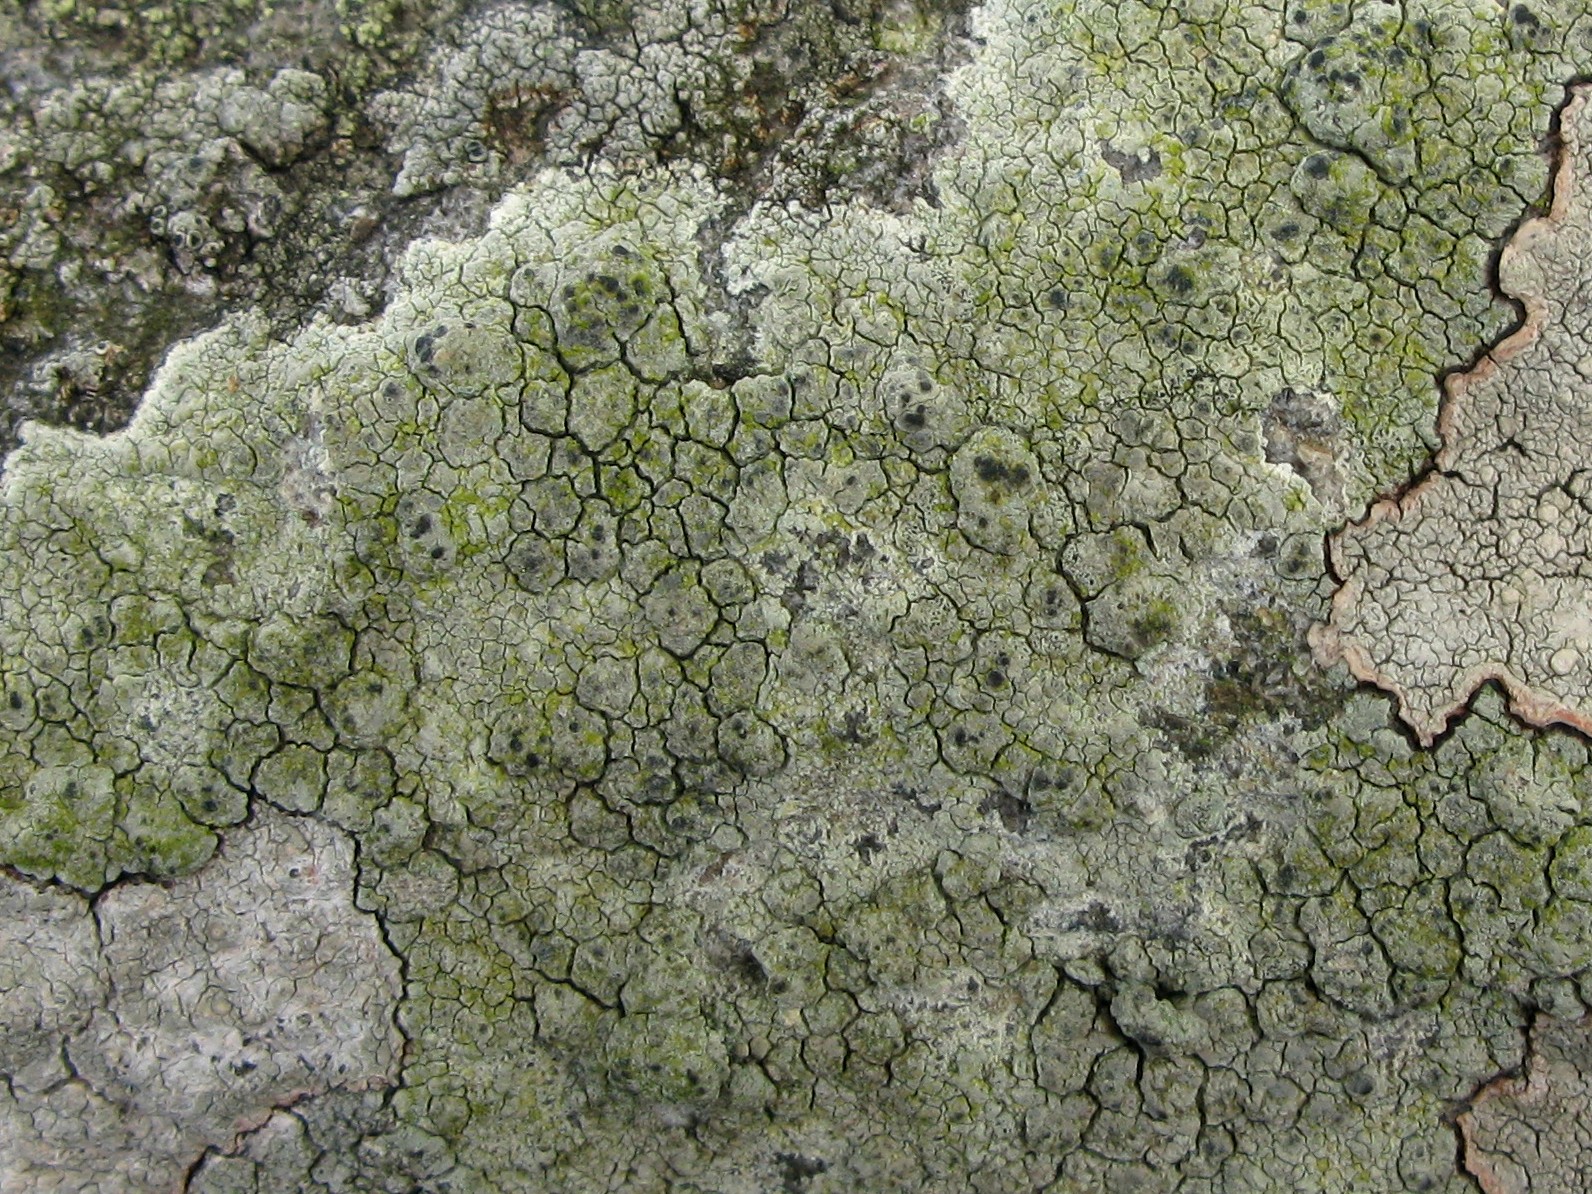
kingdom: Fungi
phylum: Ascomycota
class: Lecanoromycetes
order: Lecanorales
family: Lecanoraceae
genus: Glaucomaria
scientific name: Glaucomaria sulphurea
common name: svovlgul kantskivelav
